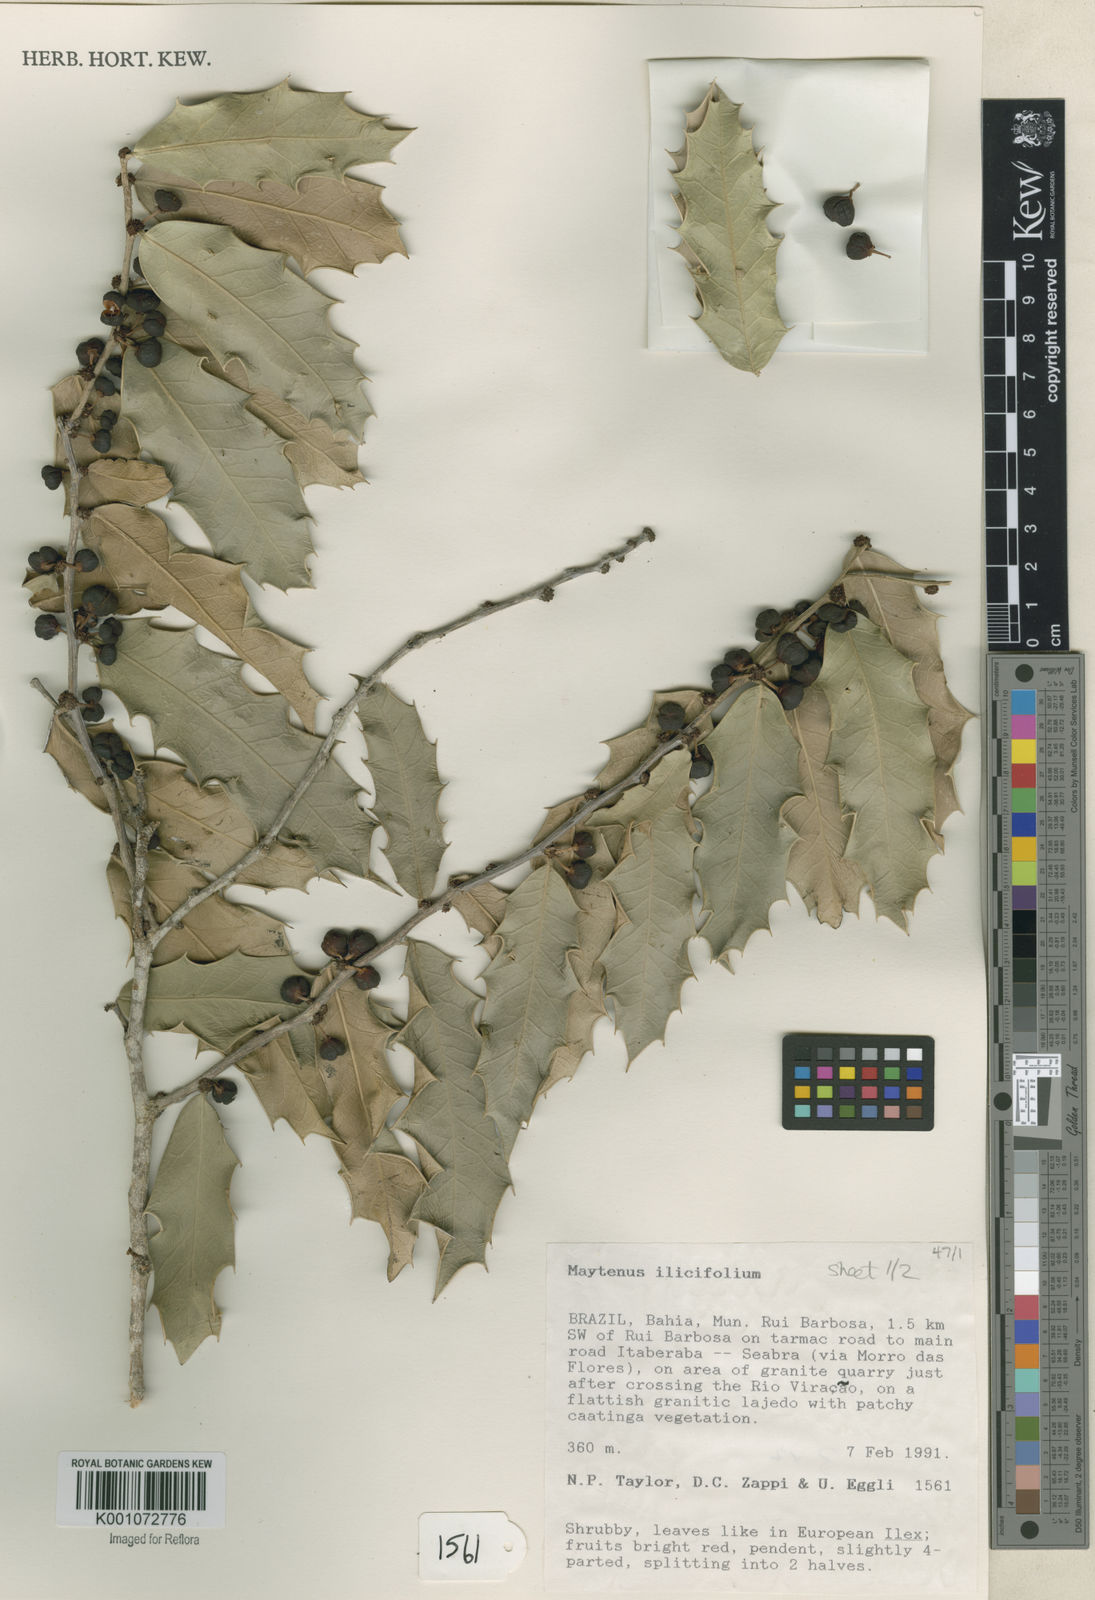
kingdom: Plantae
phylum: Tracheophyta
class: Magnoliopsida
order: Celastrales
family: Celastraceae
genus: Monteverdia
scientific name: Monteverdia ilicifolia
